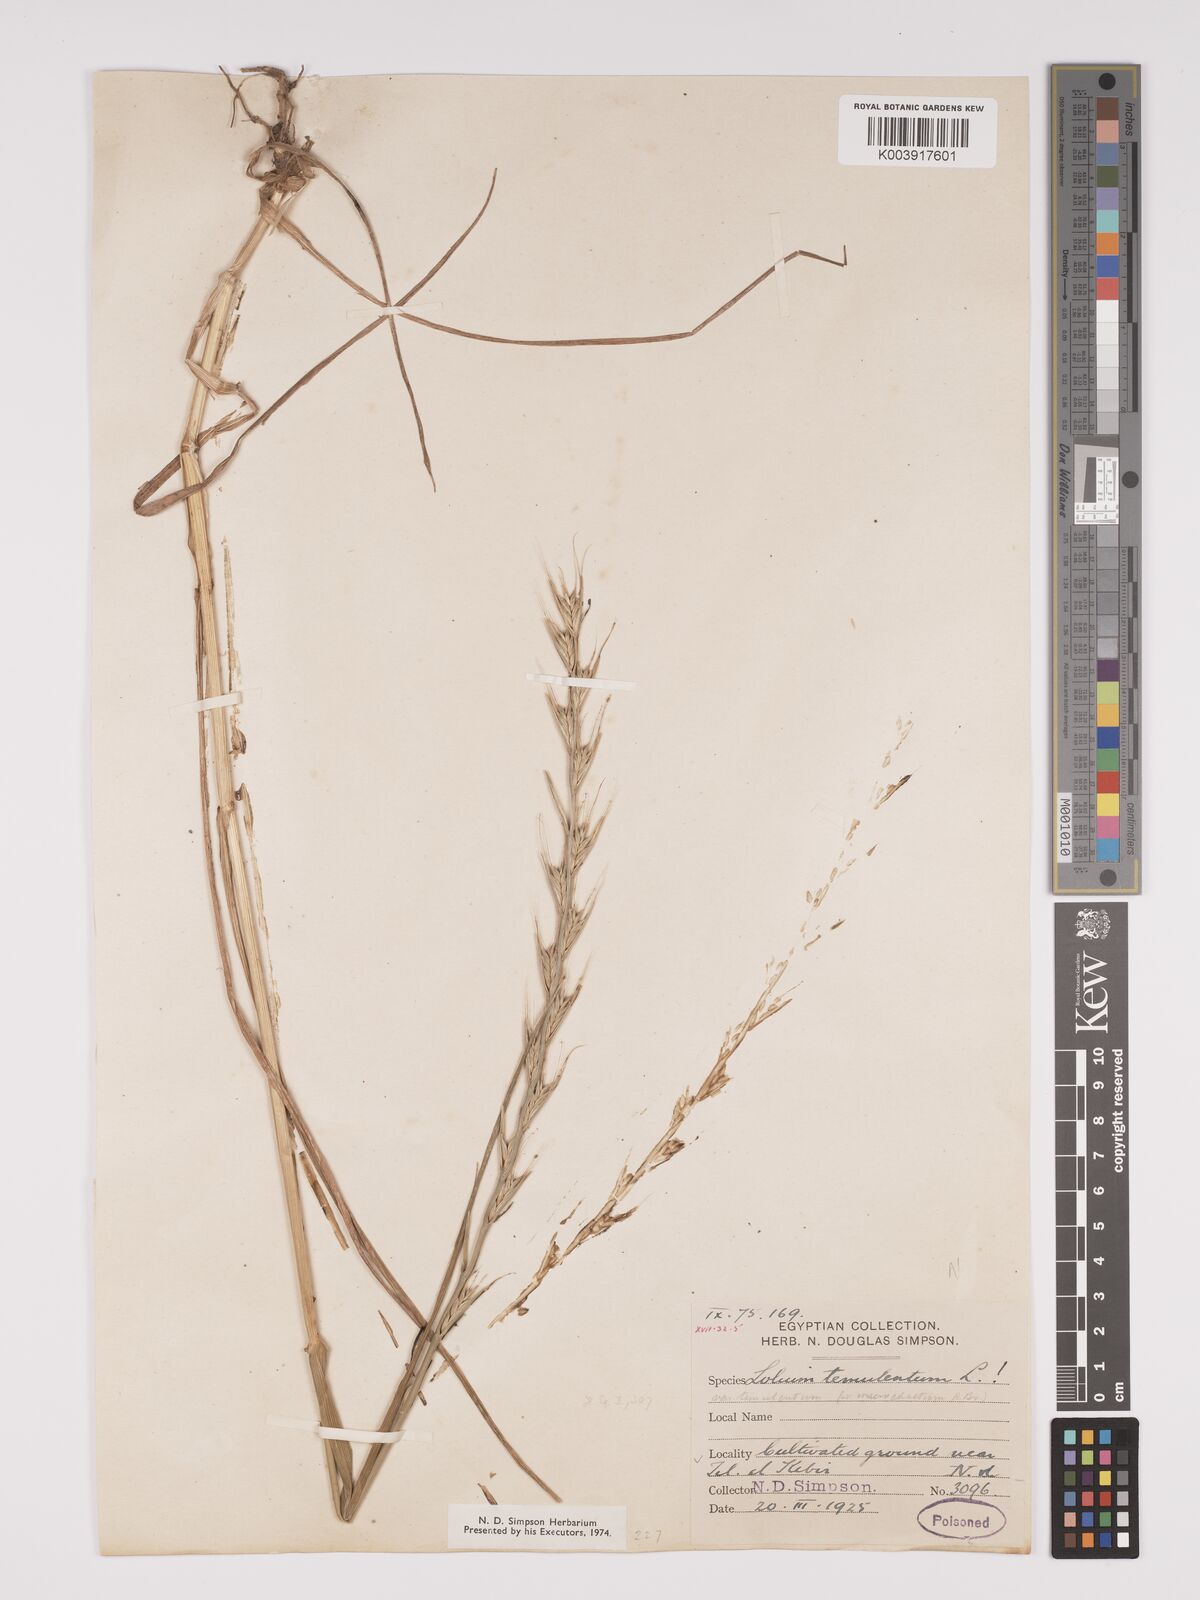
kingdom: Plantae
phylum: Tracheophyta
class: Liliopsida
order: Poales
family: Poaceae
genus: Lolium
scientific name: Lolium temulentum
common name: Darnel
